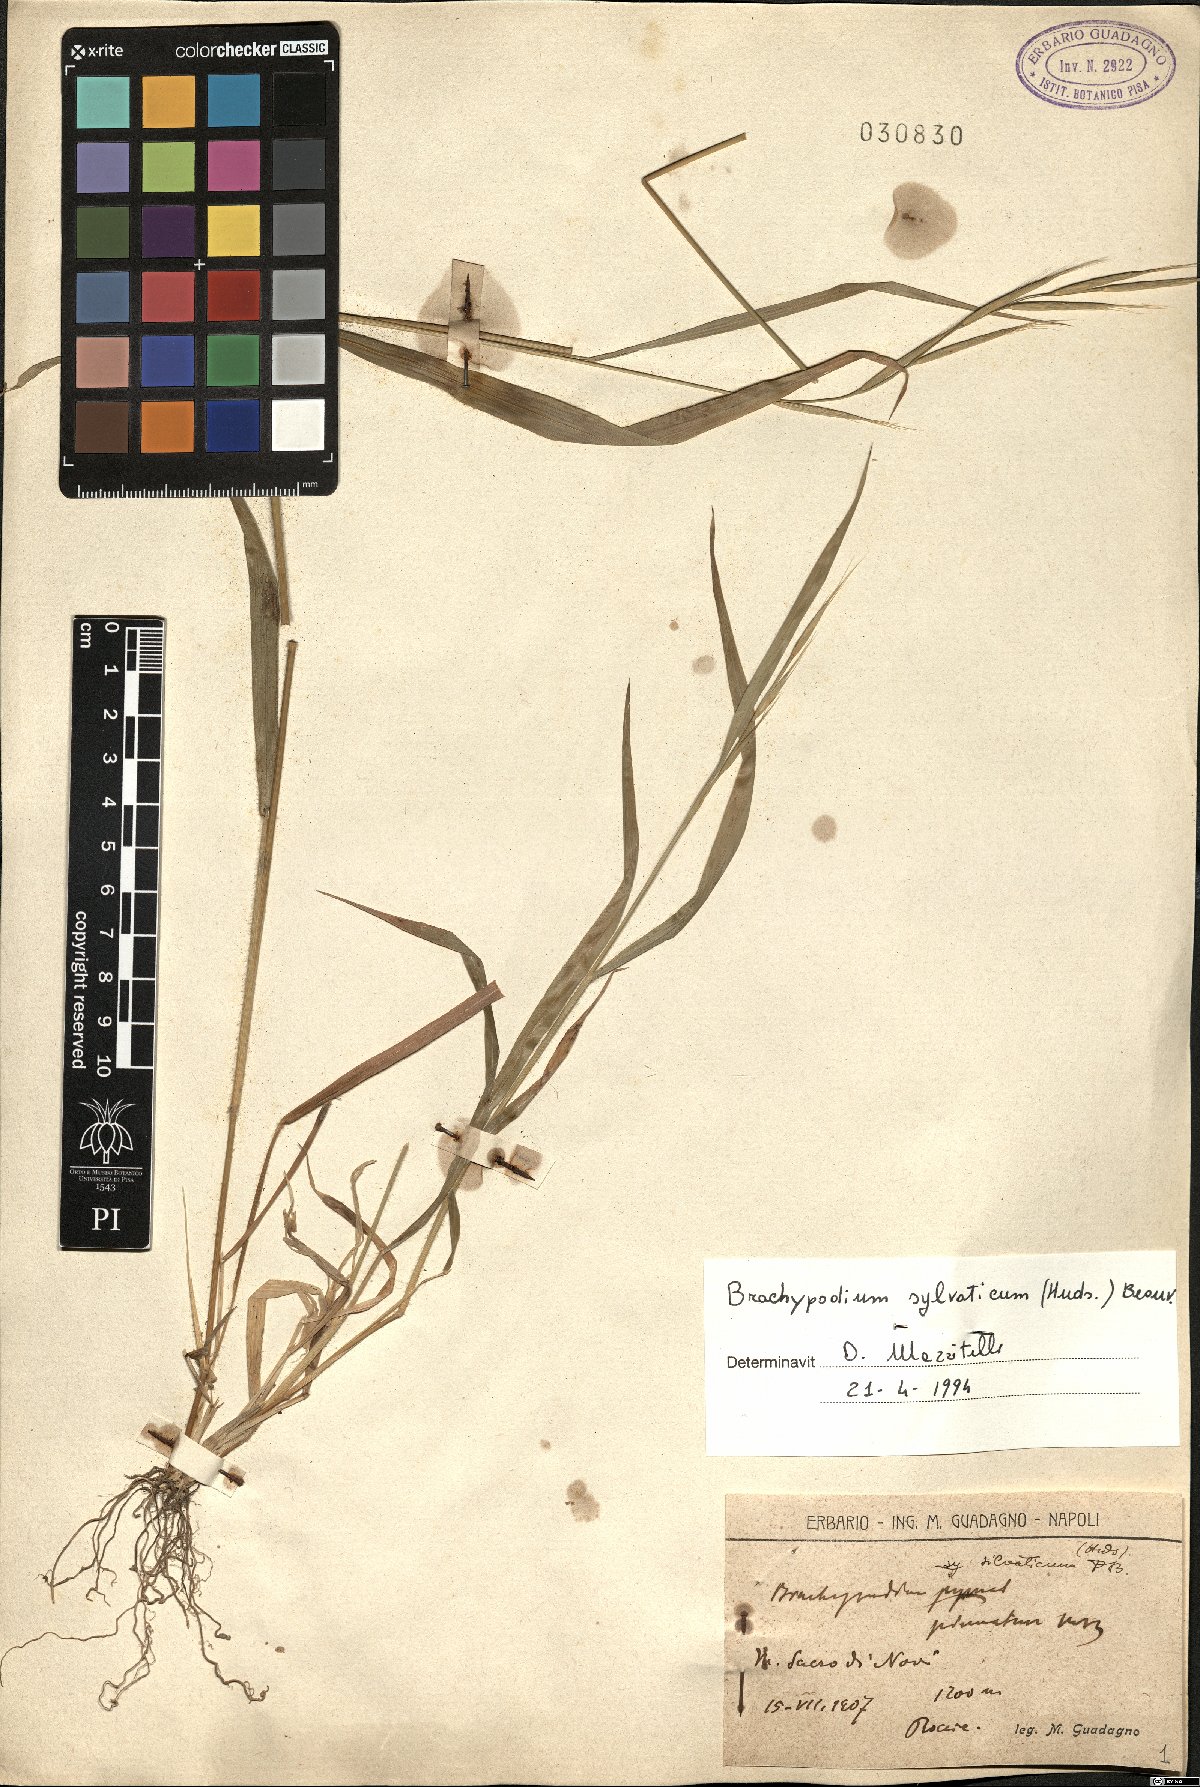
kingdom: Plantae
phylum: Tracheophyta
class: Liliopsida
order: Poales
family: Poaceae
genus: Brachypodium
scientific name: Brachypodium sylvaticum
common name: False-brome
